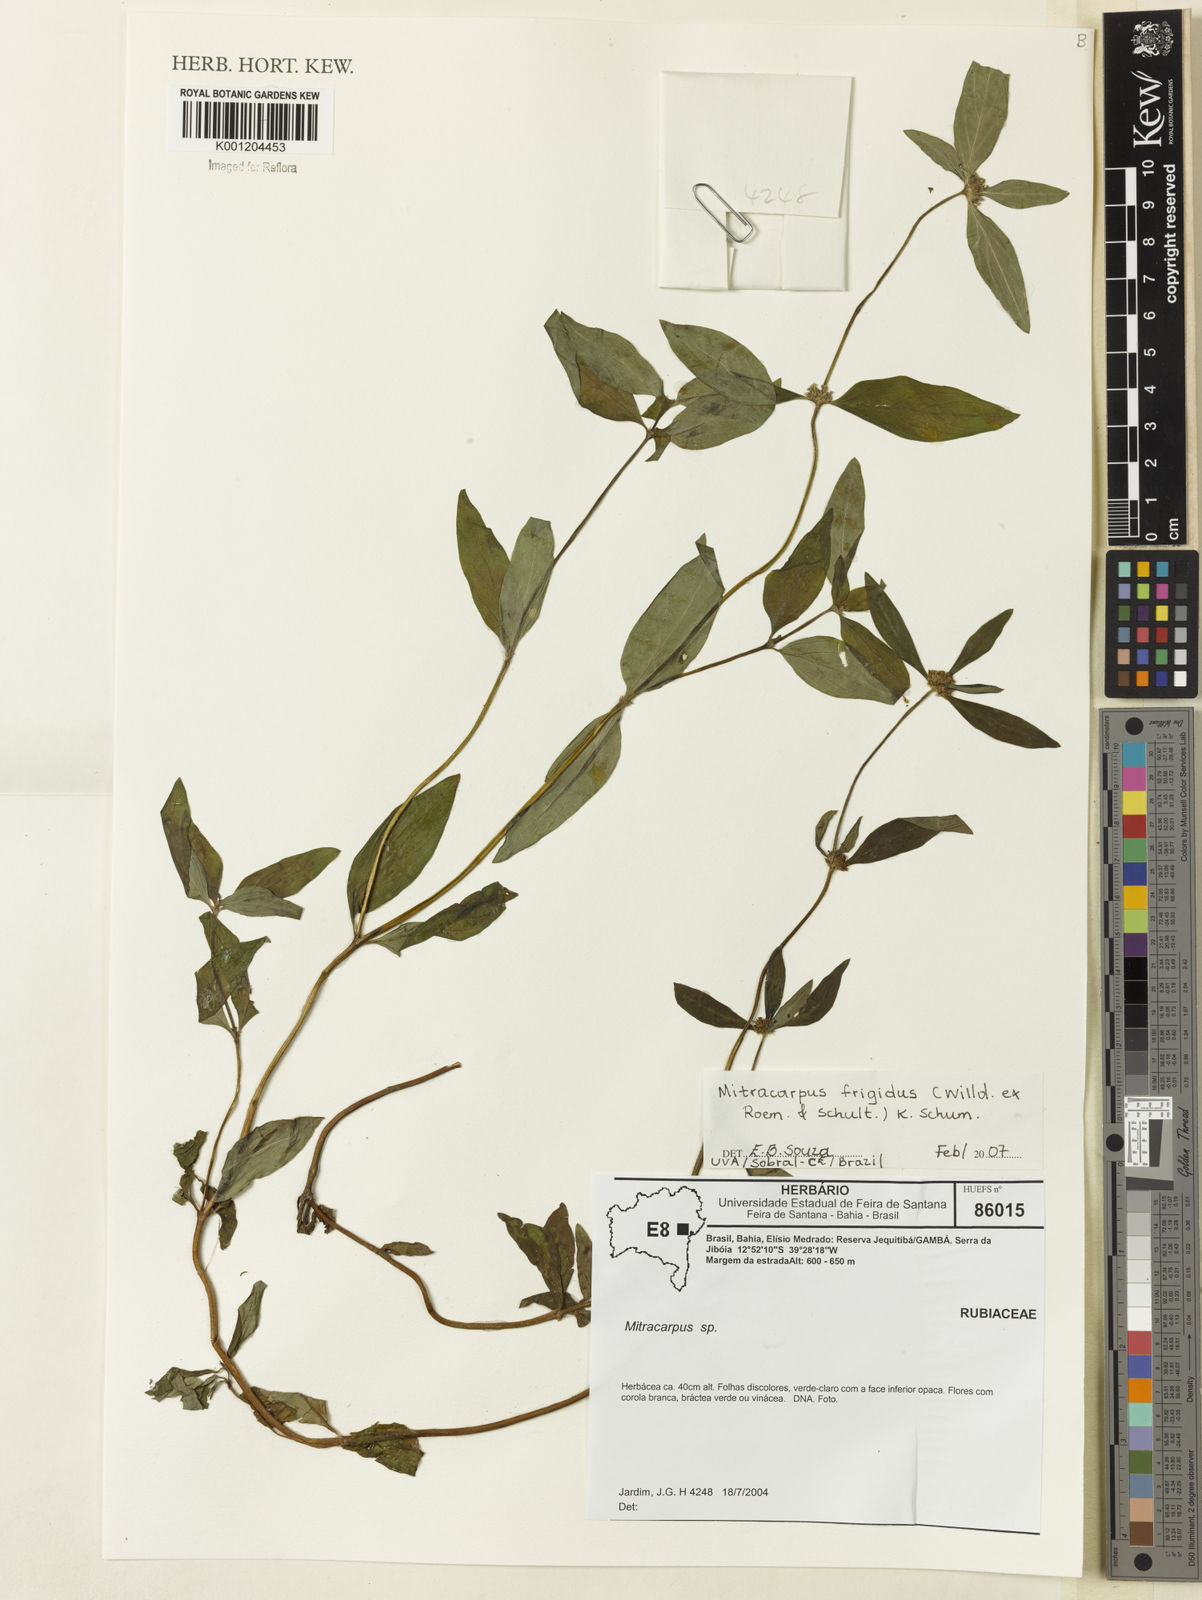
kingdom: Plantae
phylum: Tracheophyta
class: Magnoliopsida
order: Gentianales
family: Rubiaceae
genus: Mitracarpus
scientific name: Mitracarpus frigidus
